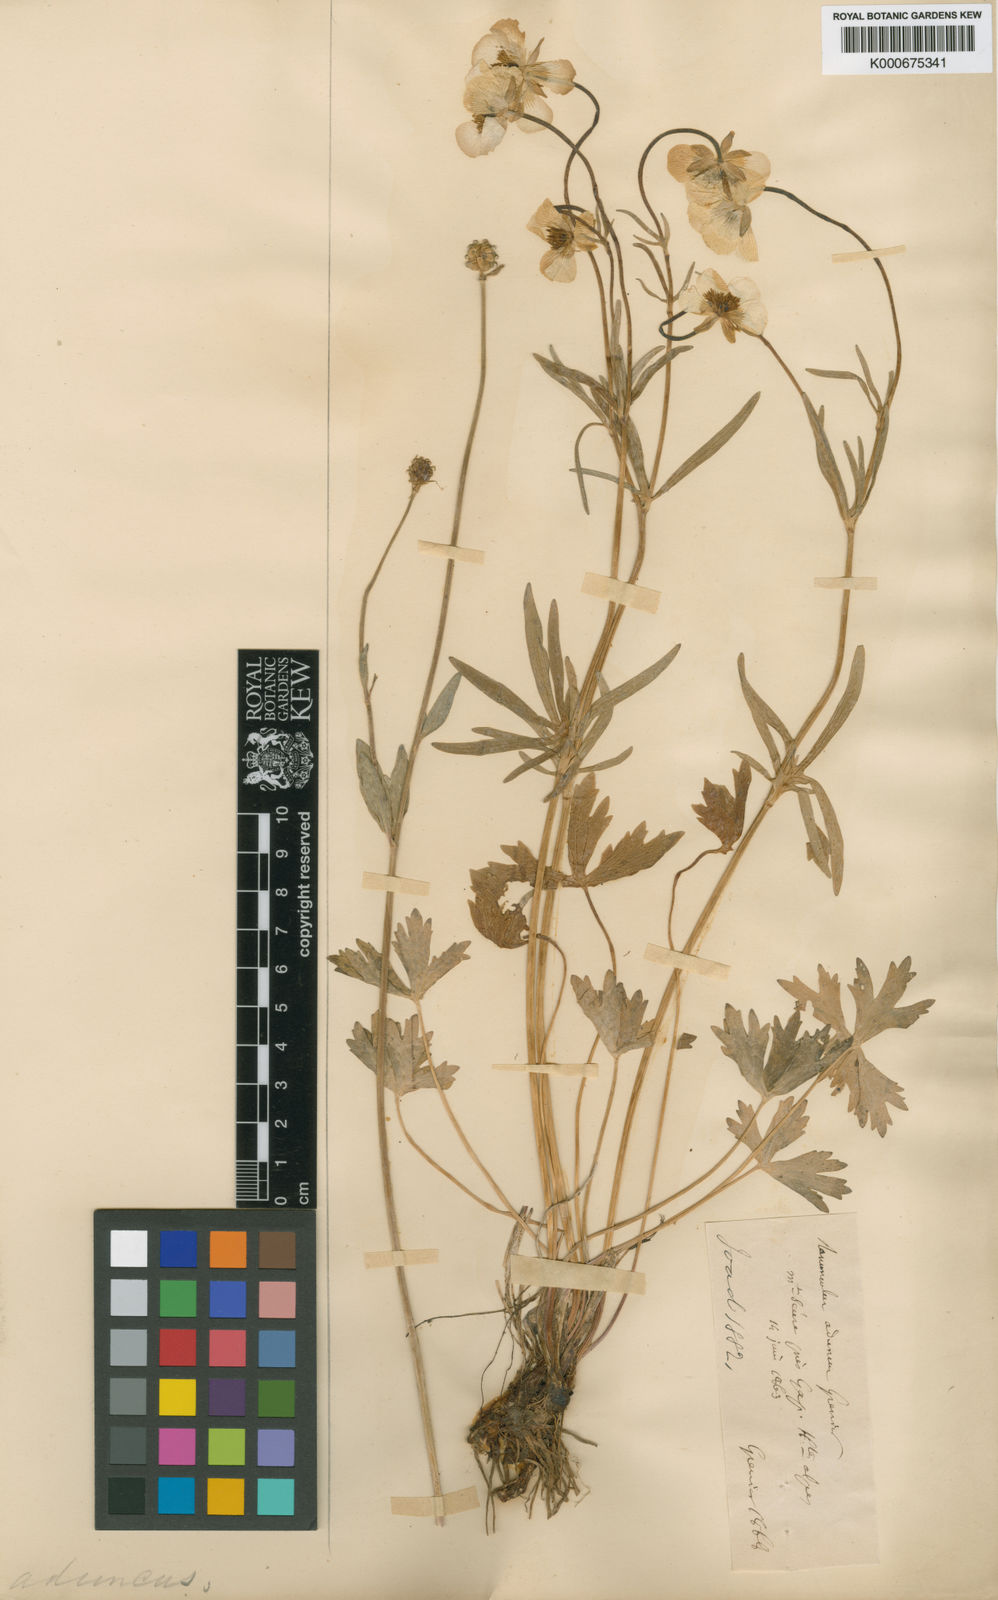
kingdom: Plantae
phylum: Tracheophyta
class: Magnoliopsida
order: Ranunculales
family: Ranunculaceae
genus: Ranunculus
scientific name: Ranunculus aduncus
